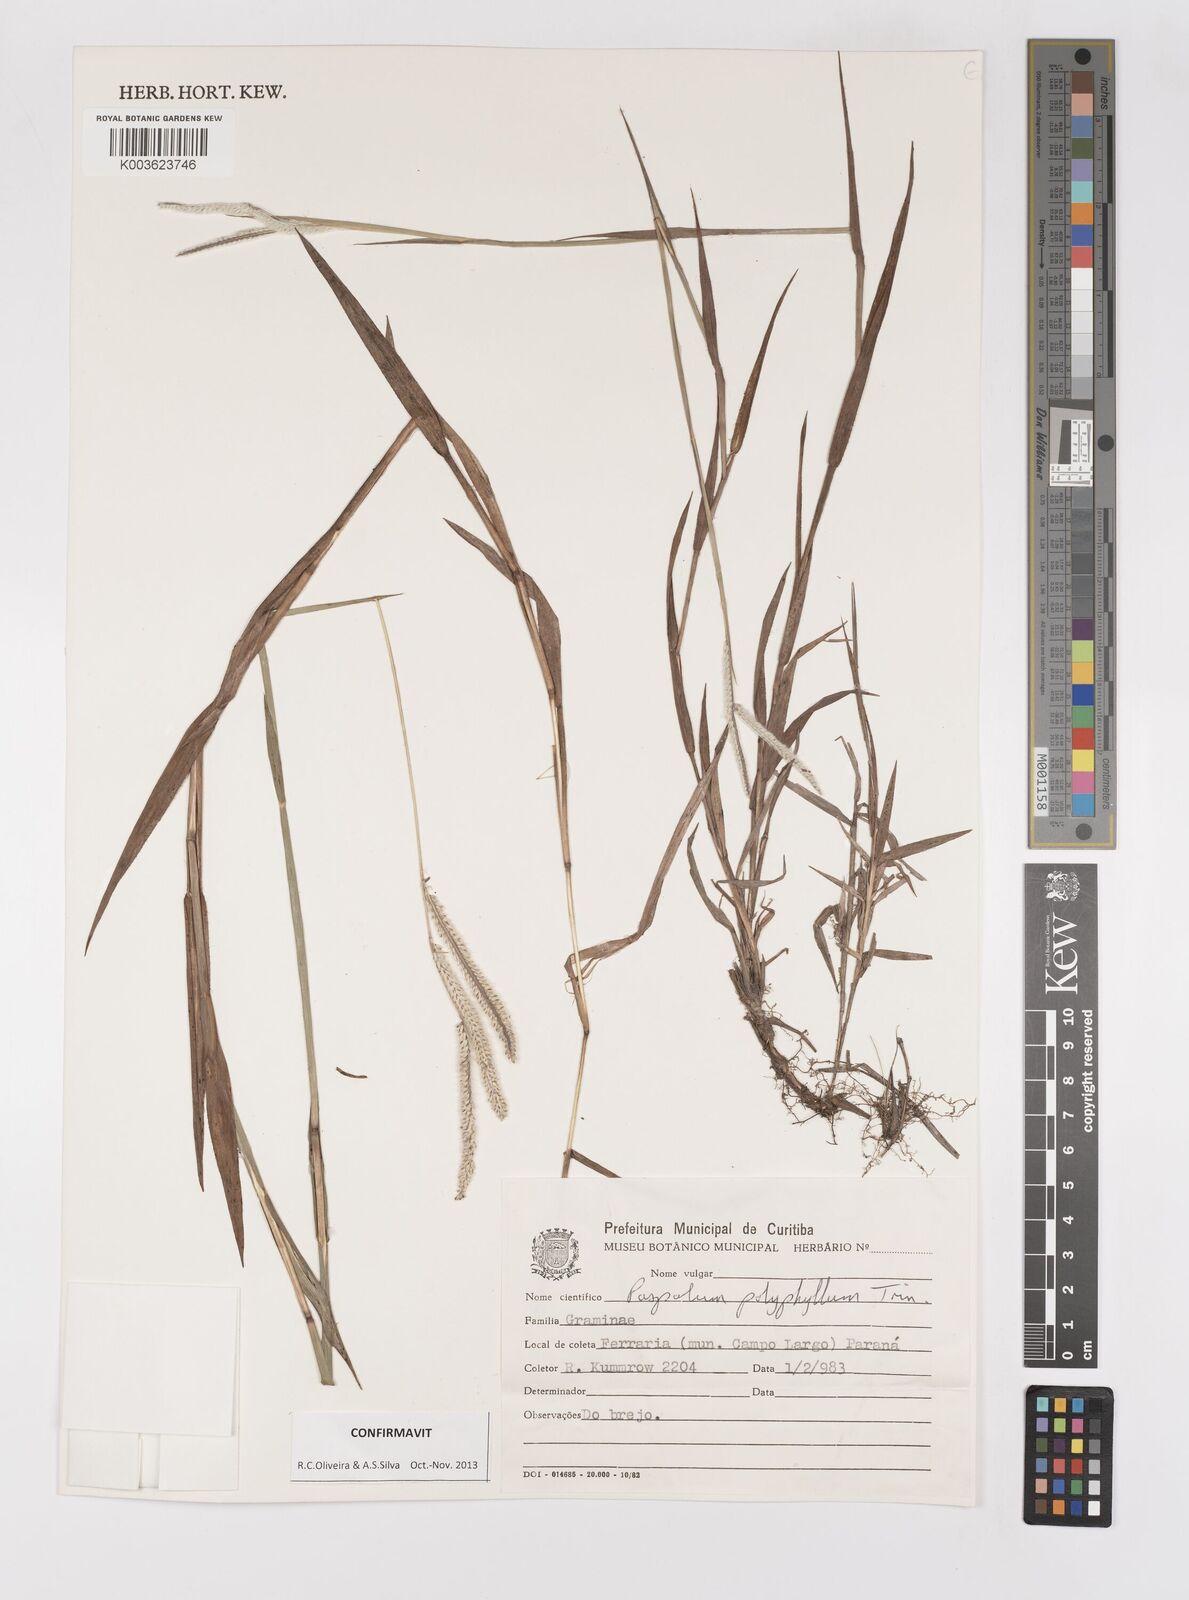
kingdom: Plantae
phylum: Tracheophyta
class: Liliopsida
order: Poales
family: Poaceae
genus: Paspalum
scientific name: Paspalum polyphyllum
